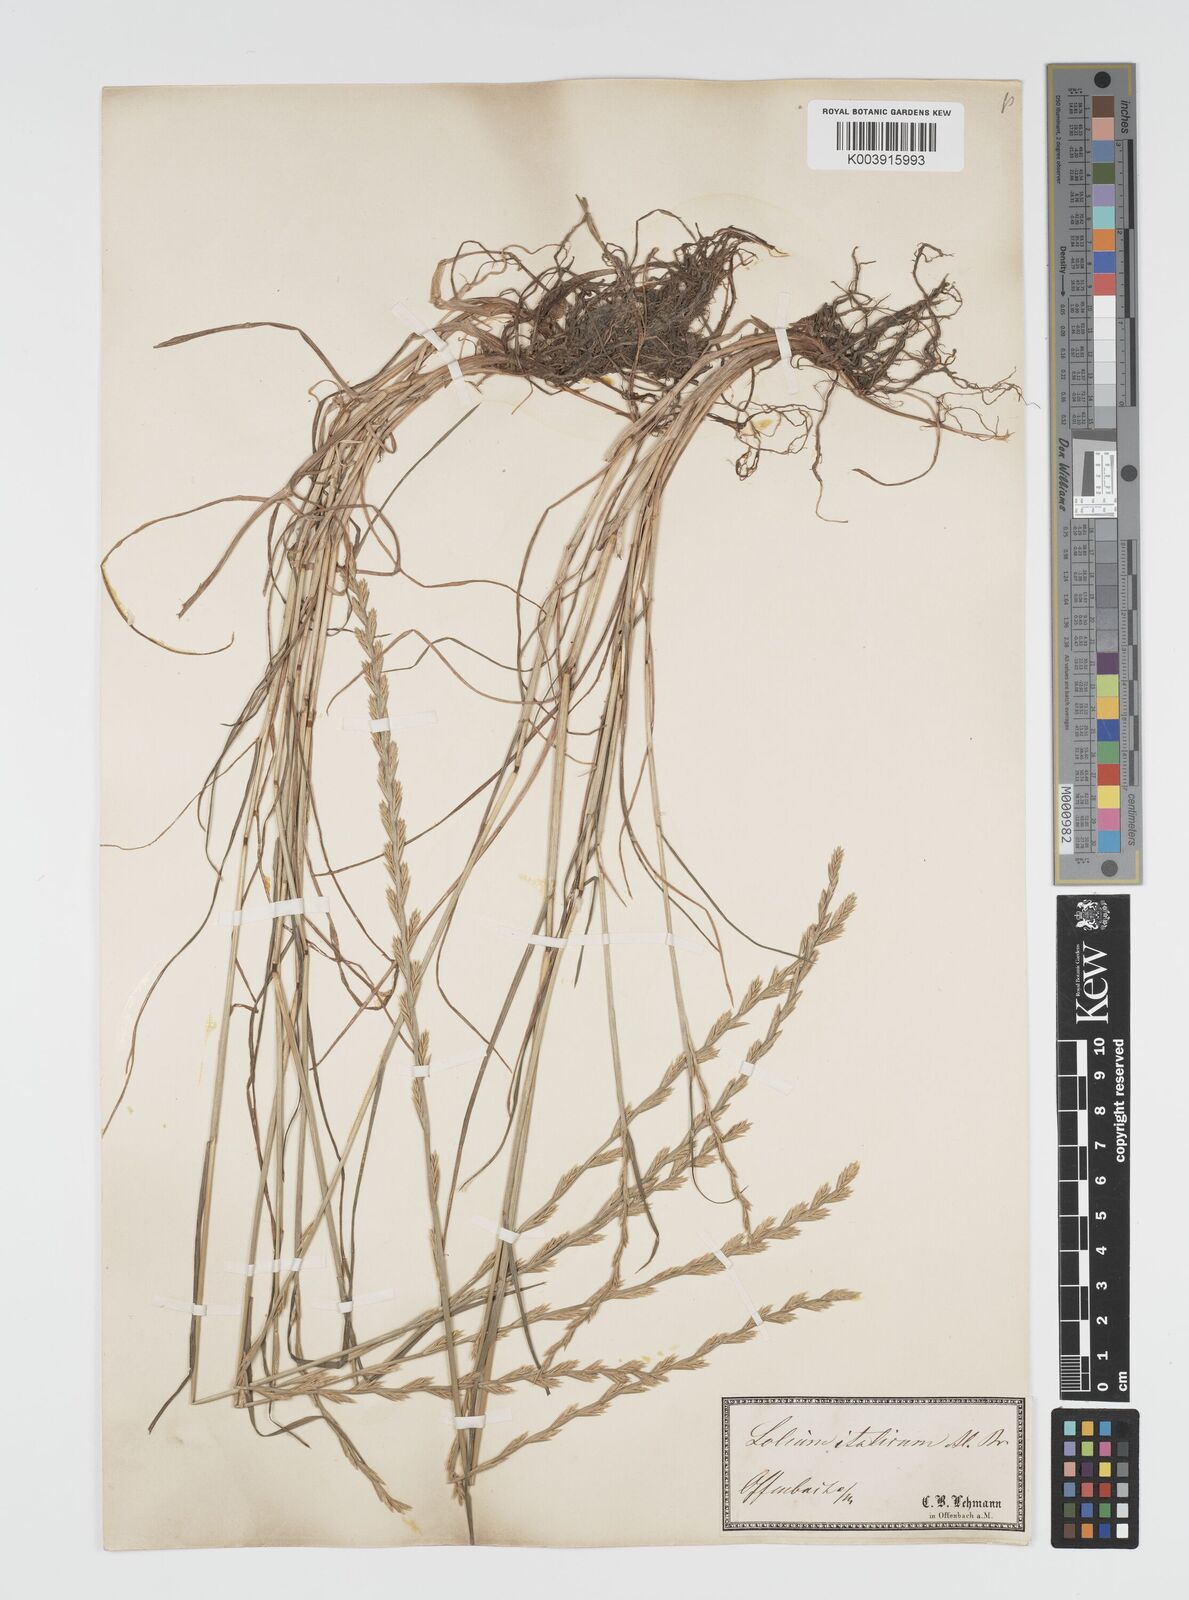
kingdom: Plantae
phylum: Tracheophyta
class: Liliopsida
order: Poales
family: Poaceae
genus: Lolium
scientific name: Lolium multiflorum
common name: Annual ryegrass
